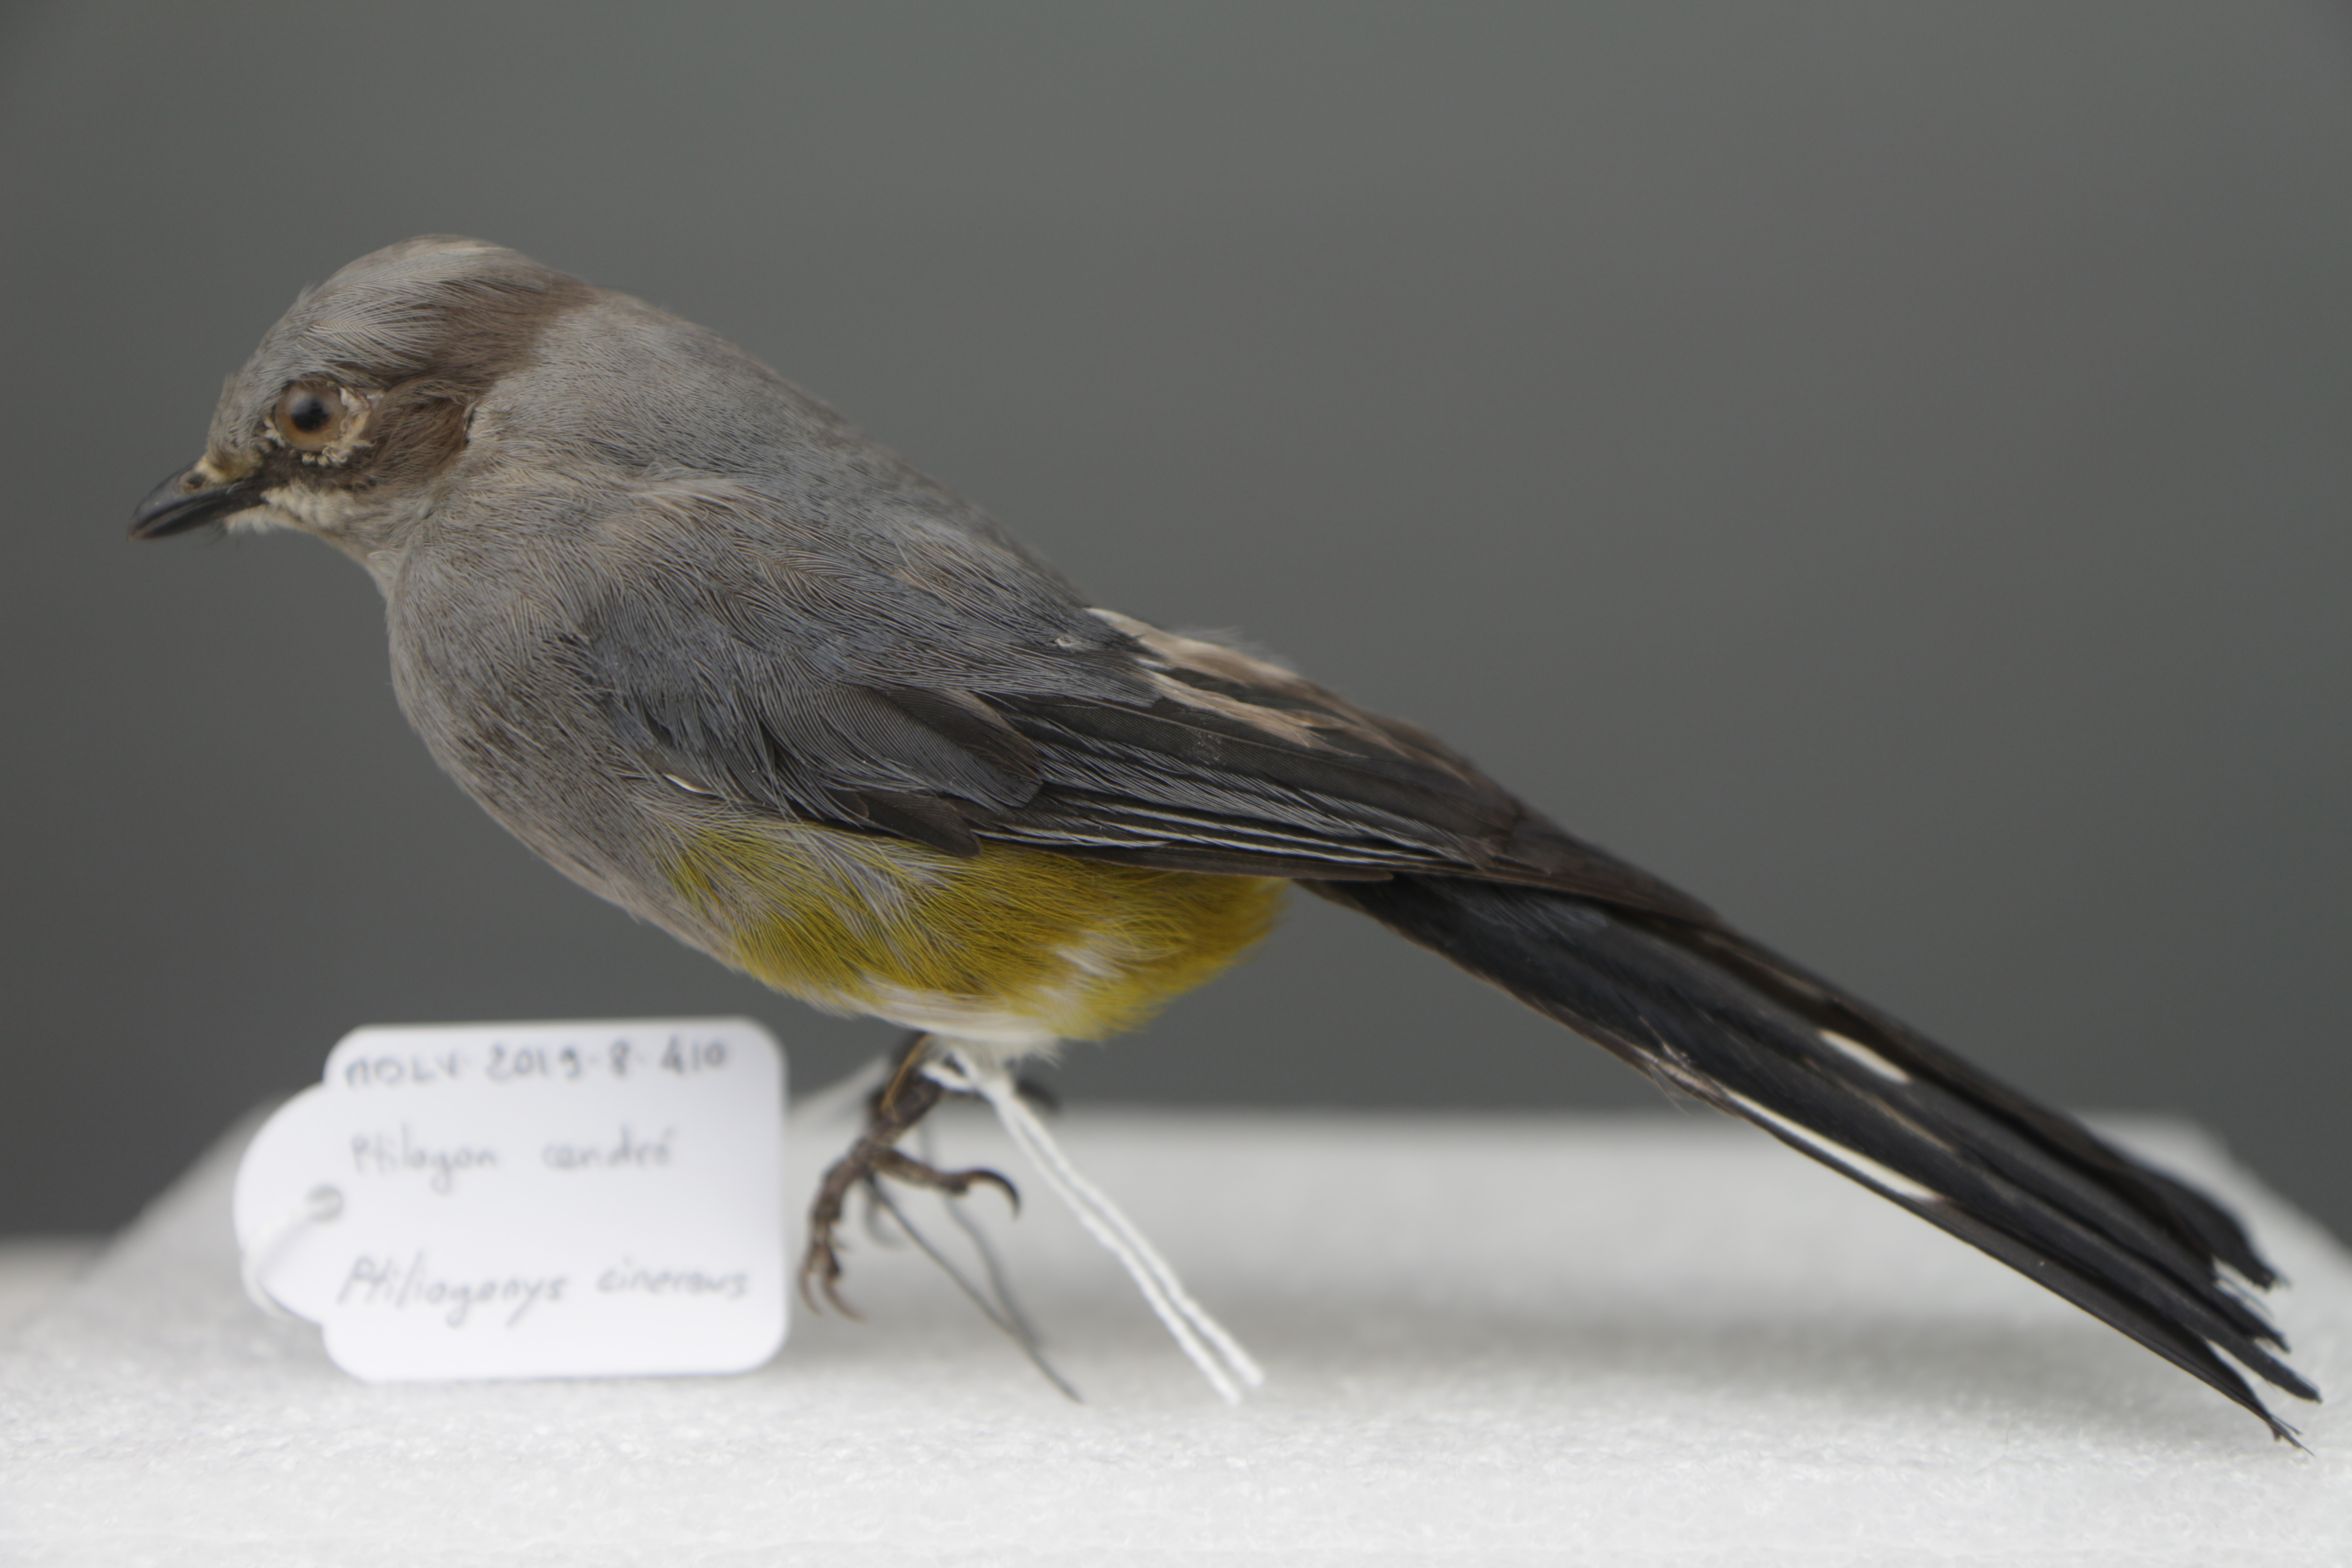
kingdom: Animalia
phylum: Chordata
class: Aves
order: Passeriformes
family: Ptilogonatidae
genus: Ptilogonys
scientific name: Ptilogonys cinereus
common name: Gray silky-flycatcher
